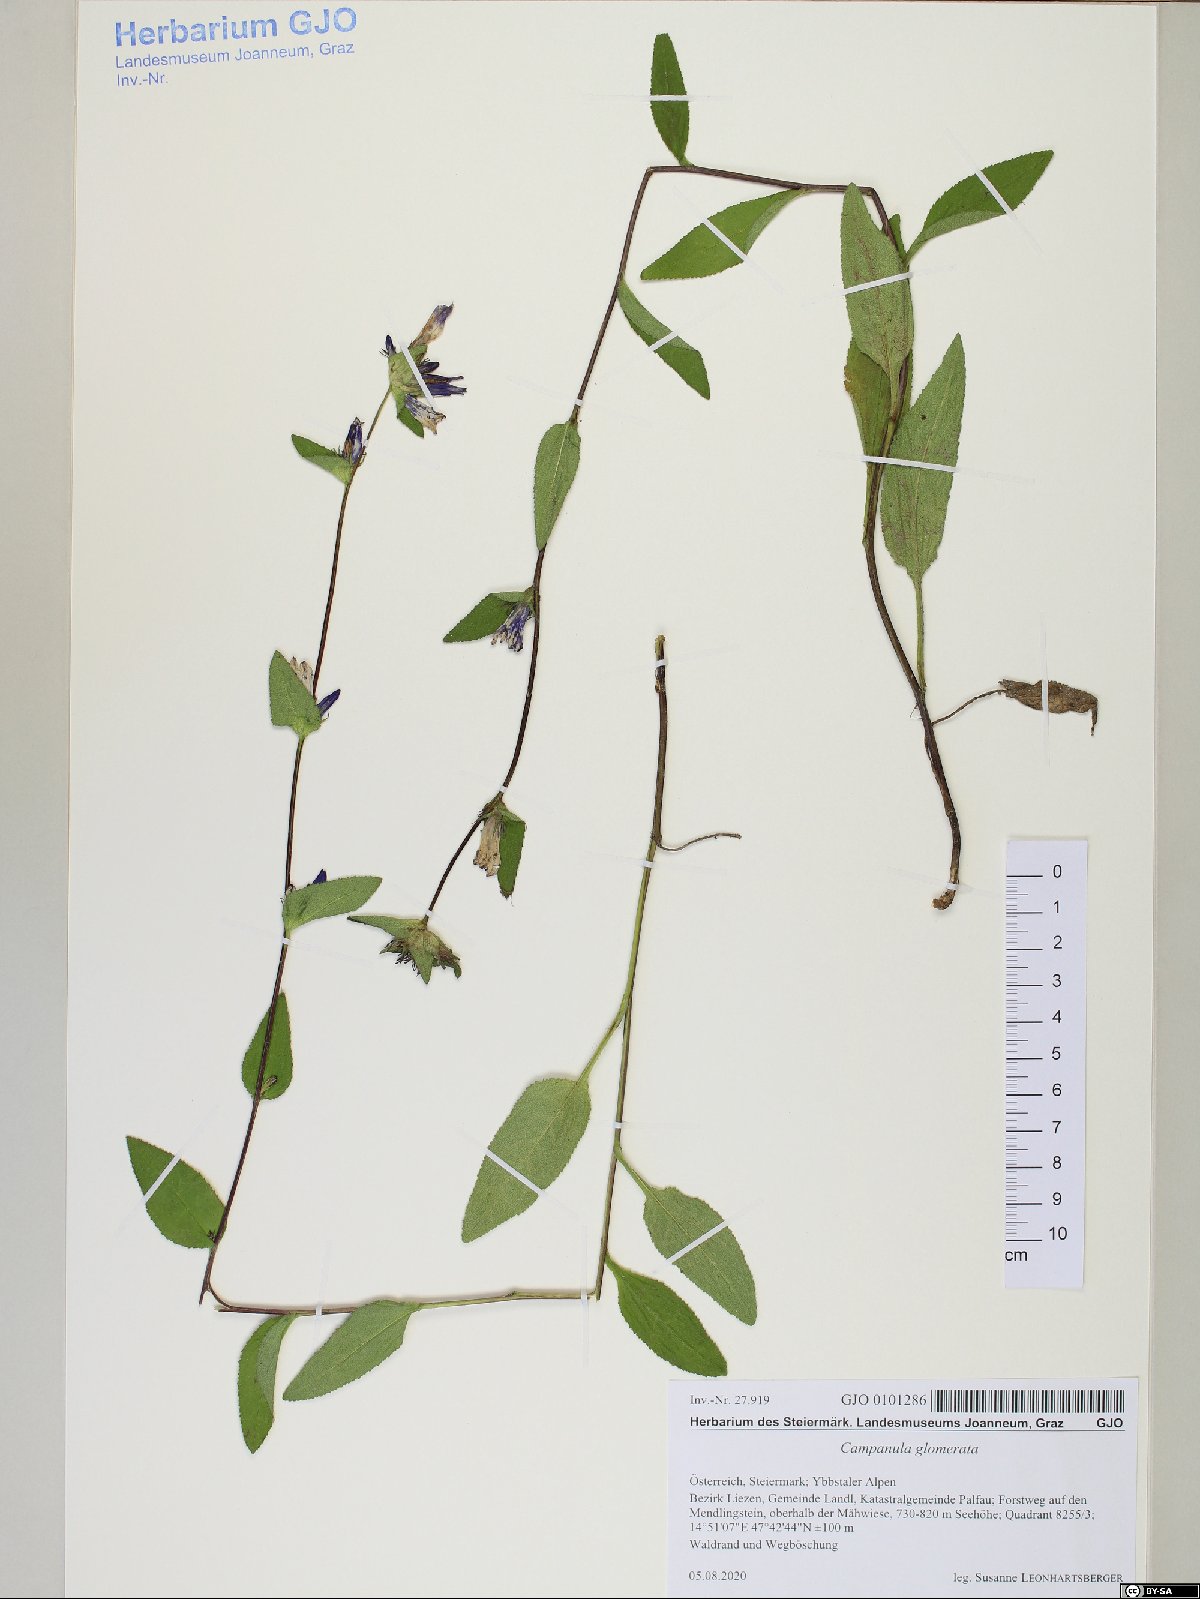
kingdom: Plantae
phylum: Tracheophyta
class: Magnoliopsida
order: Asterales
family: Campanulaceae
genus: Campanula
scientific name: Campanula glomerata
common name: Clustered bellflower
